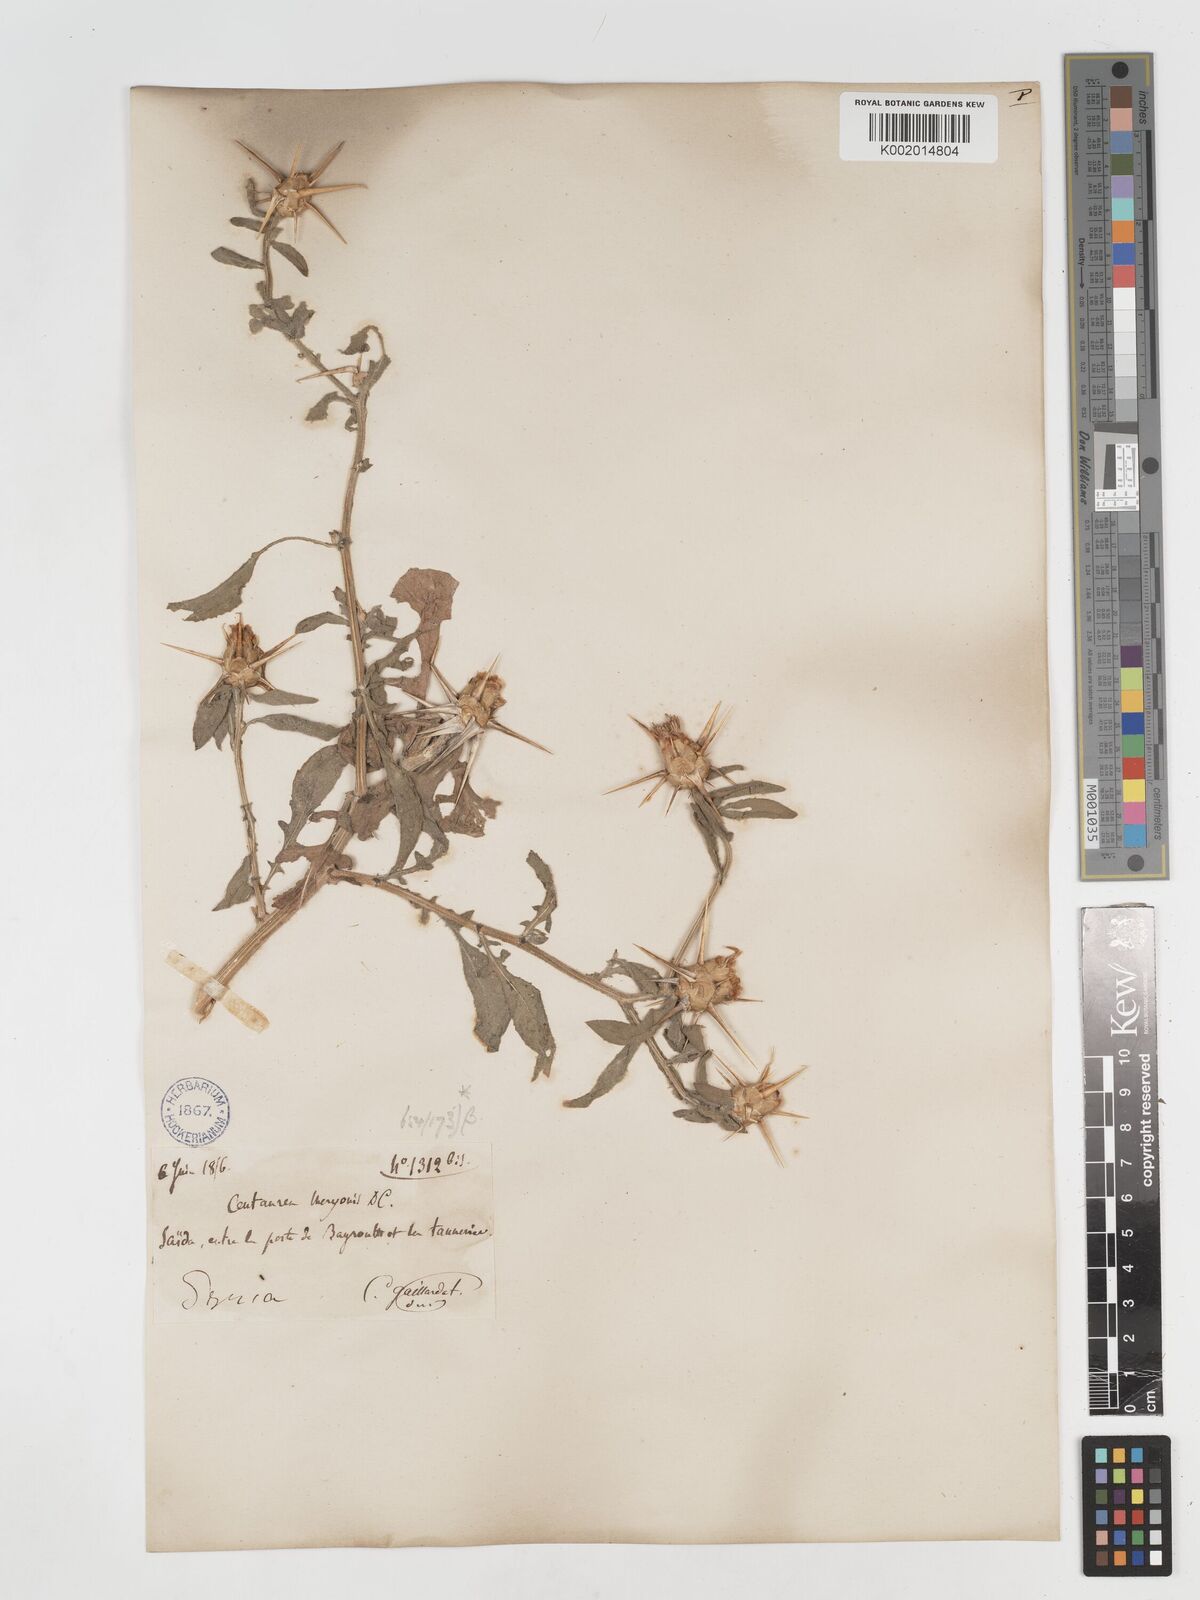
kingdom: Plantae
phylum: Tracheophyta
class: Magnoliopsida
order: Asterales
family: Asteraceae
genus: Centaurea
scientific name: Centaurea iberica
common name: Iberian knapweed
